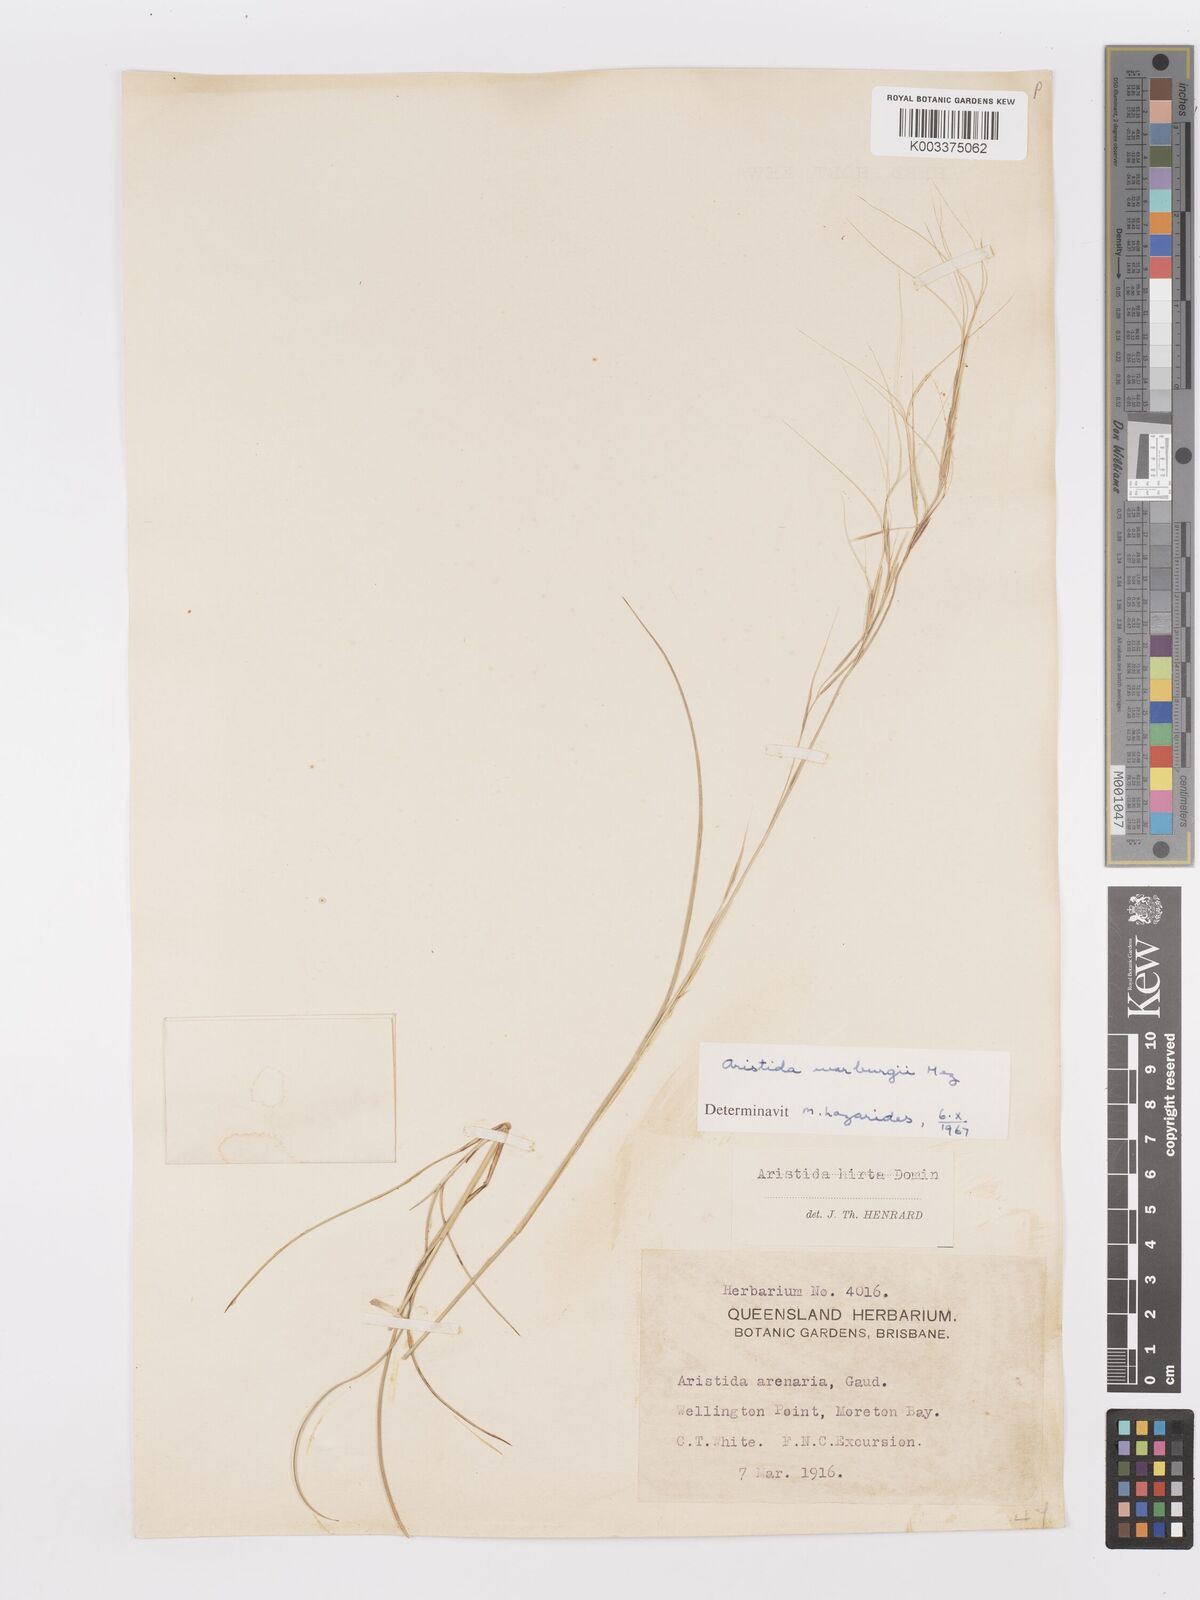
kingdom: Plantae
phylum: Tracheophyta
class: Liliopsida
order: Poales
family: Poaceae
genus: Aristida
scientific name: Aristida warburgii
